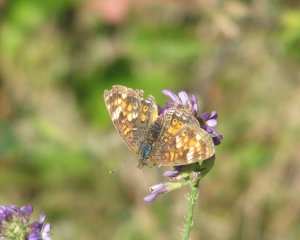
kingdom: Animalia
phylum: Arthropoda
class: Insecta
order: Lepidoptera
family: Nymphalidae
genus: Phyciodes
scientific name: Phyciodes
